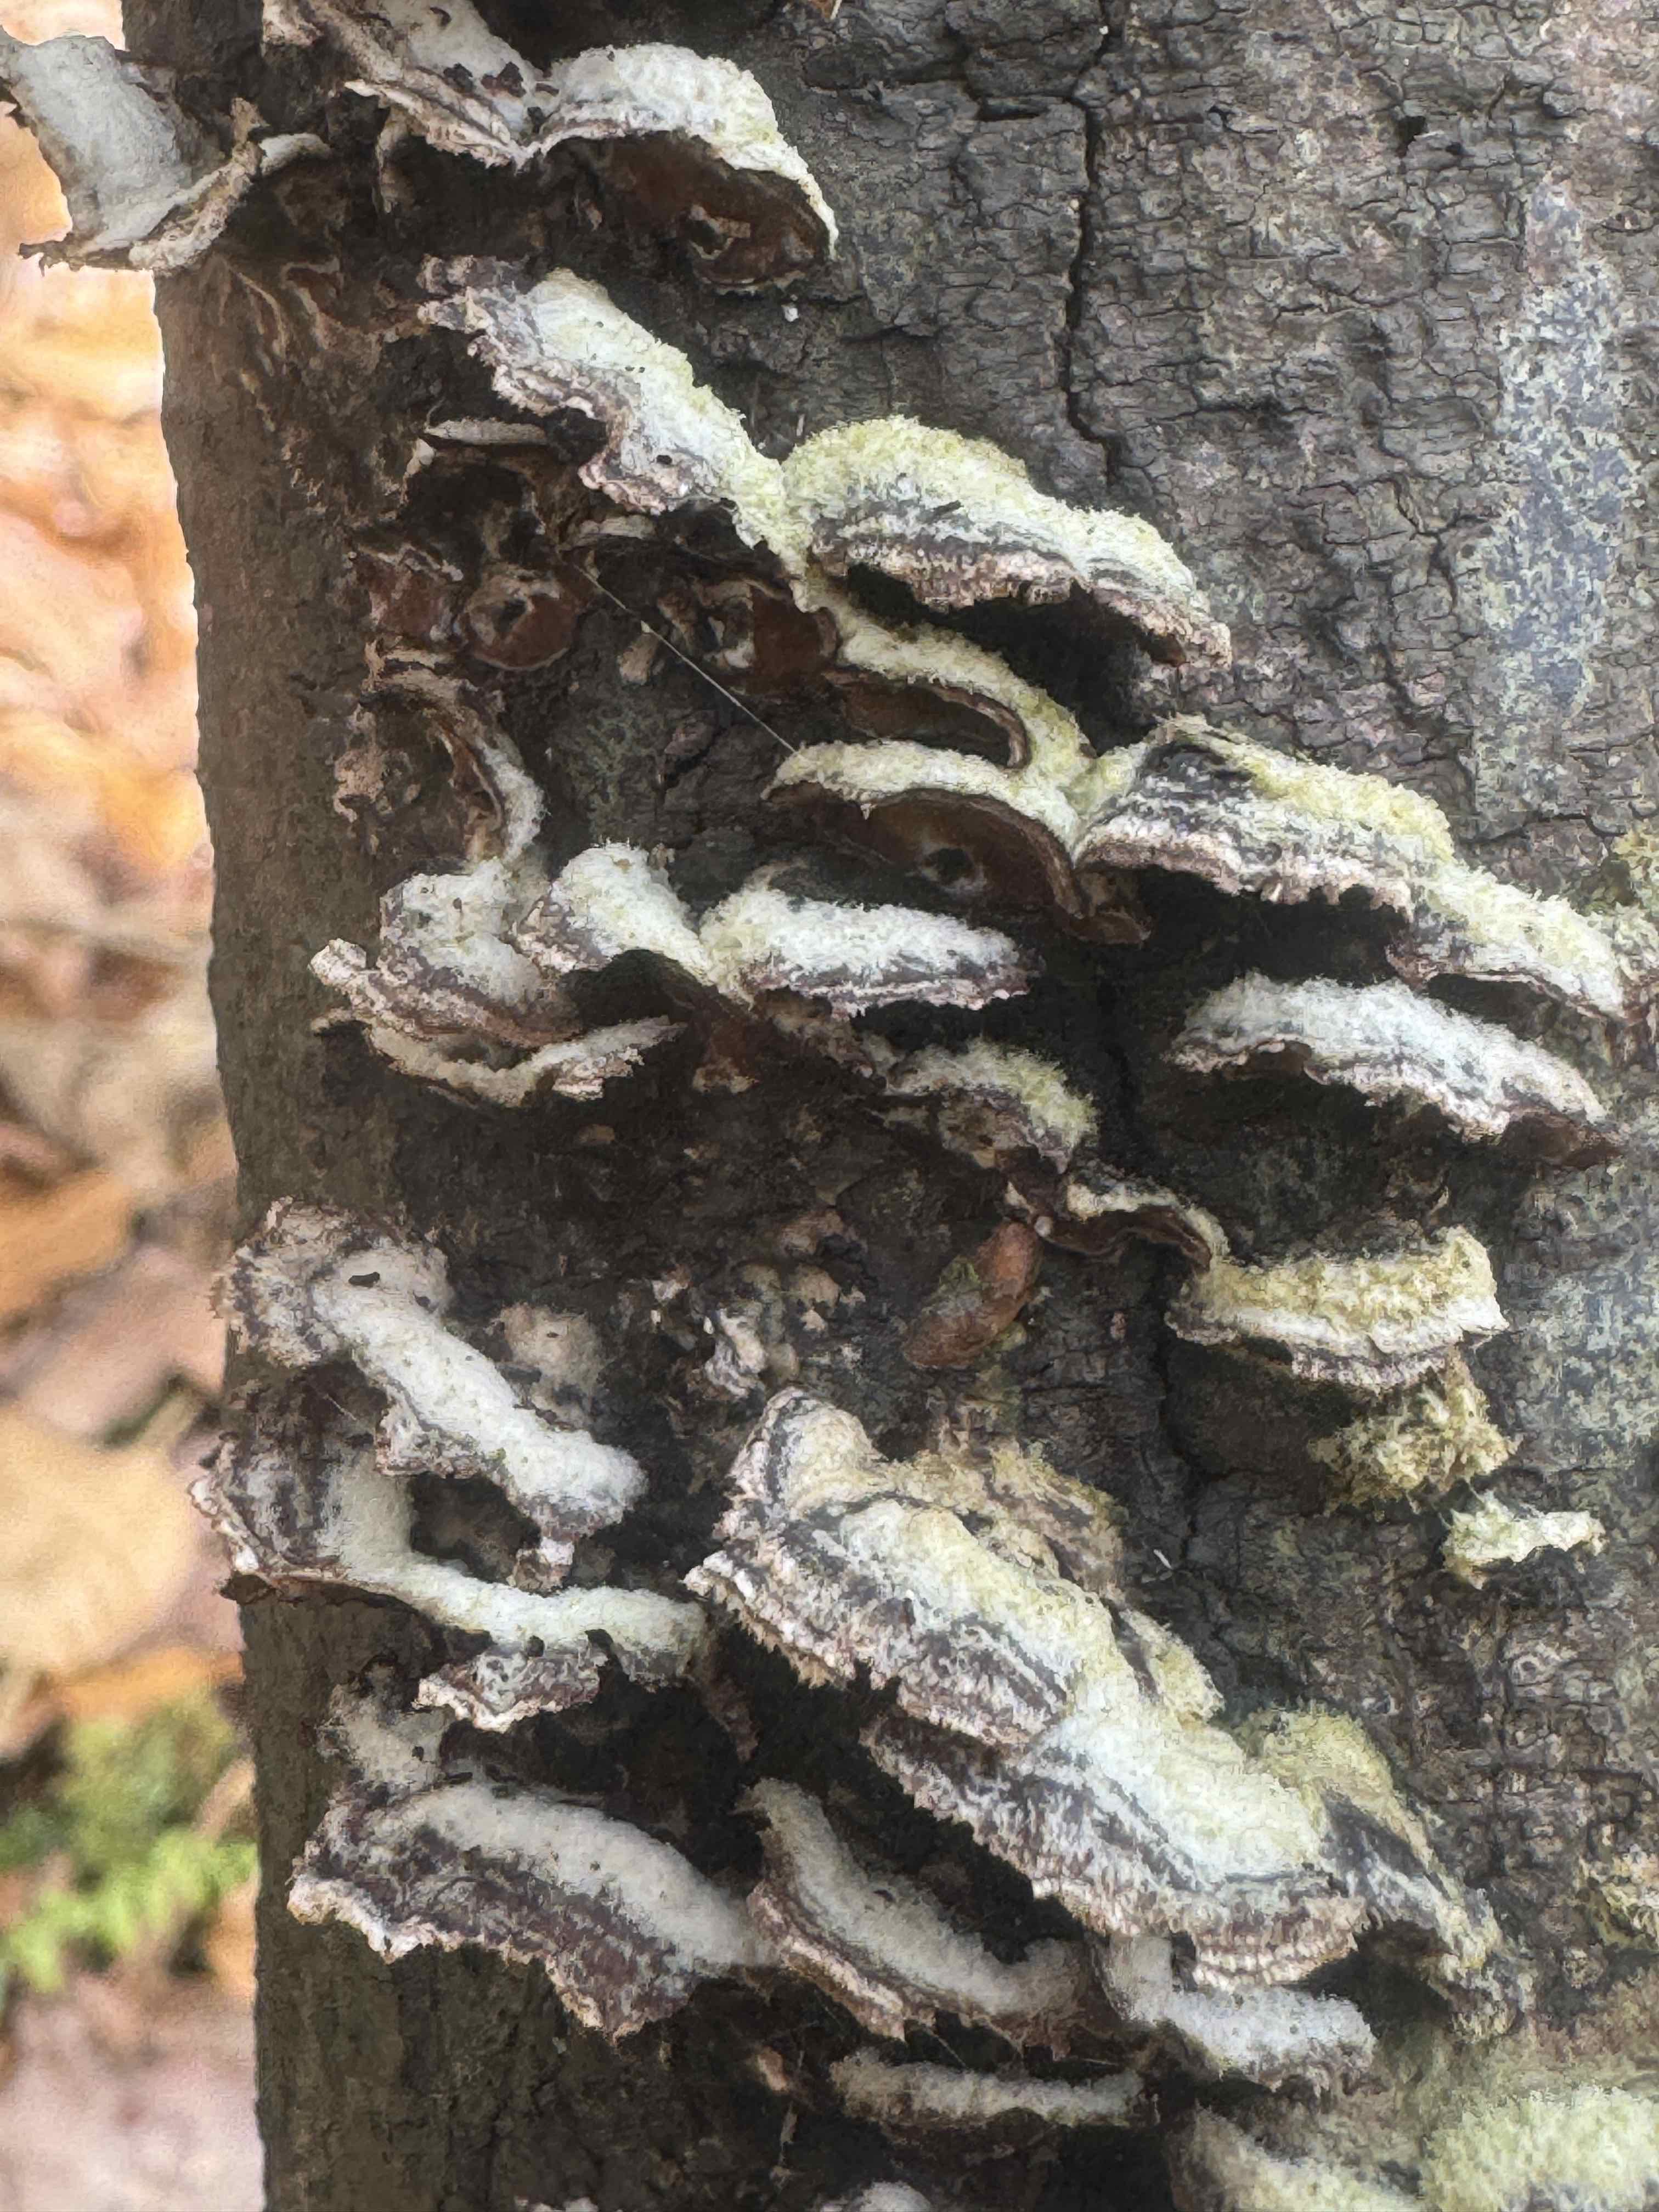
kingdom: Fungi
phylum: Basidiomycota
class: Agaricomycetes
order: Agaricales
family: Cyphellaceae
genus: Chondrostereum
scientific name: Chondrostereum purpureum
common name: purpurlædersvamp
